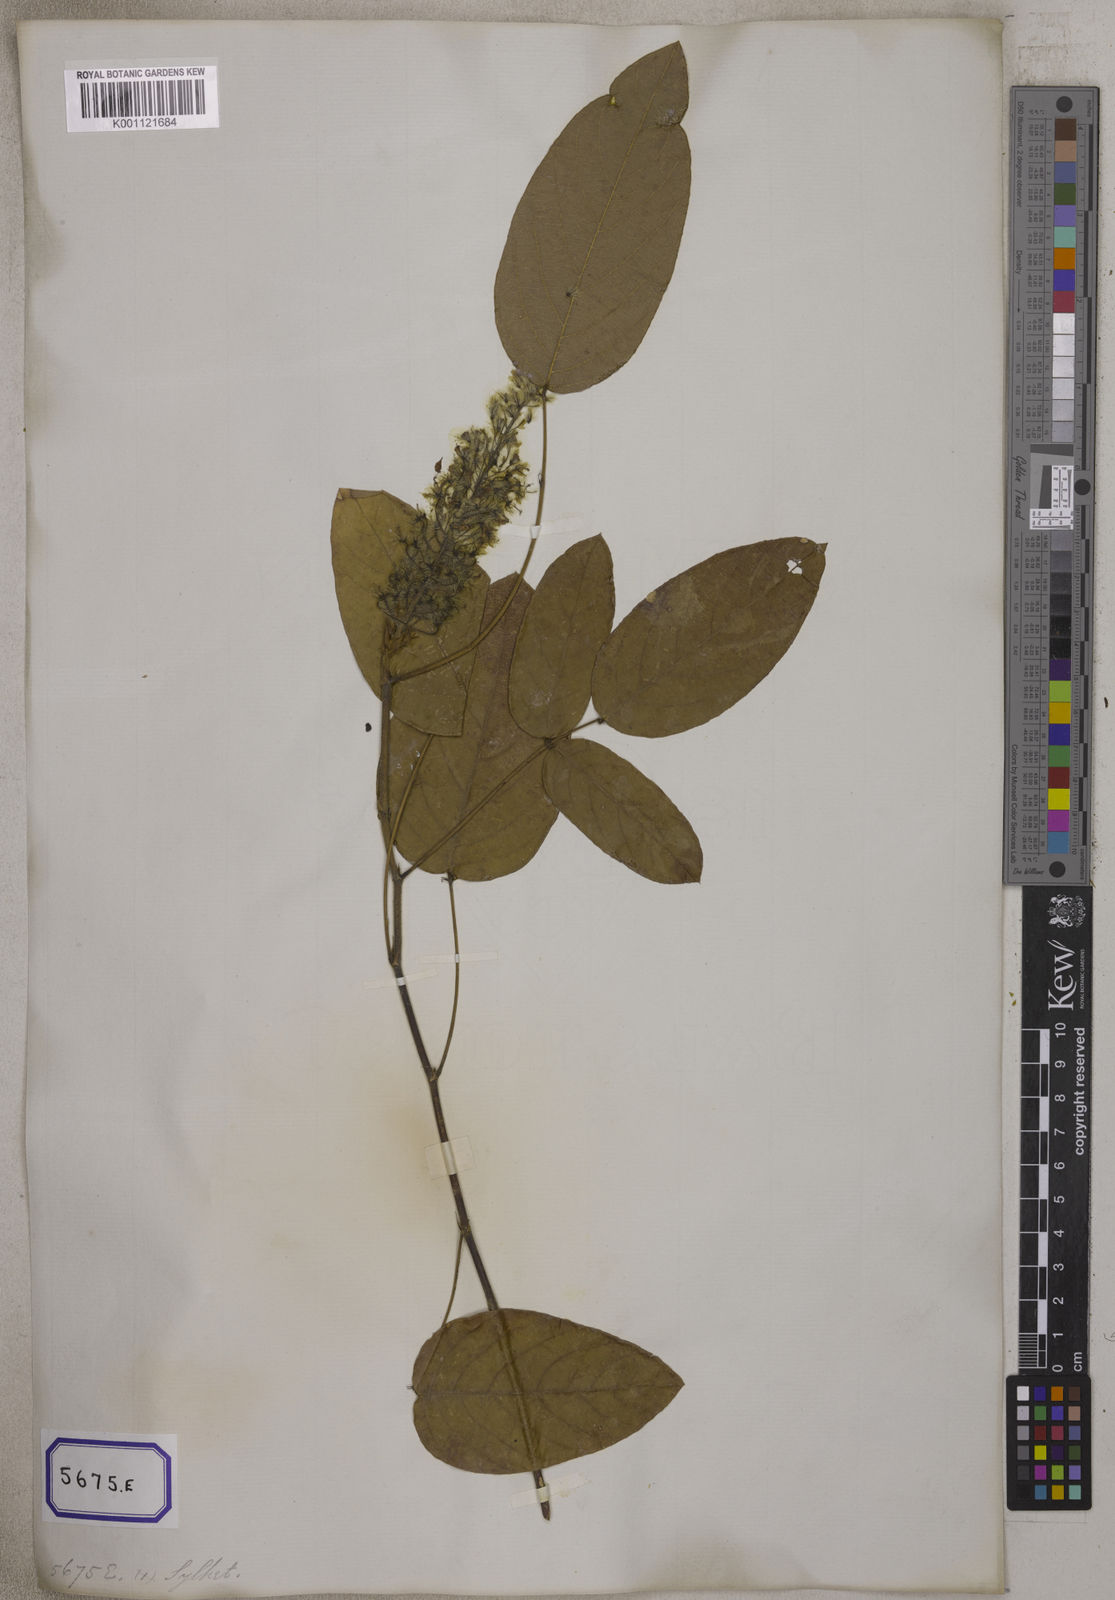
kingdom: Plantae
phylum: Tracheophyta
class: Magnoliopsida
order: Fabales
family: Fabaceae
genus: Uraria
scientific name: Uraria
